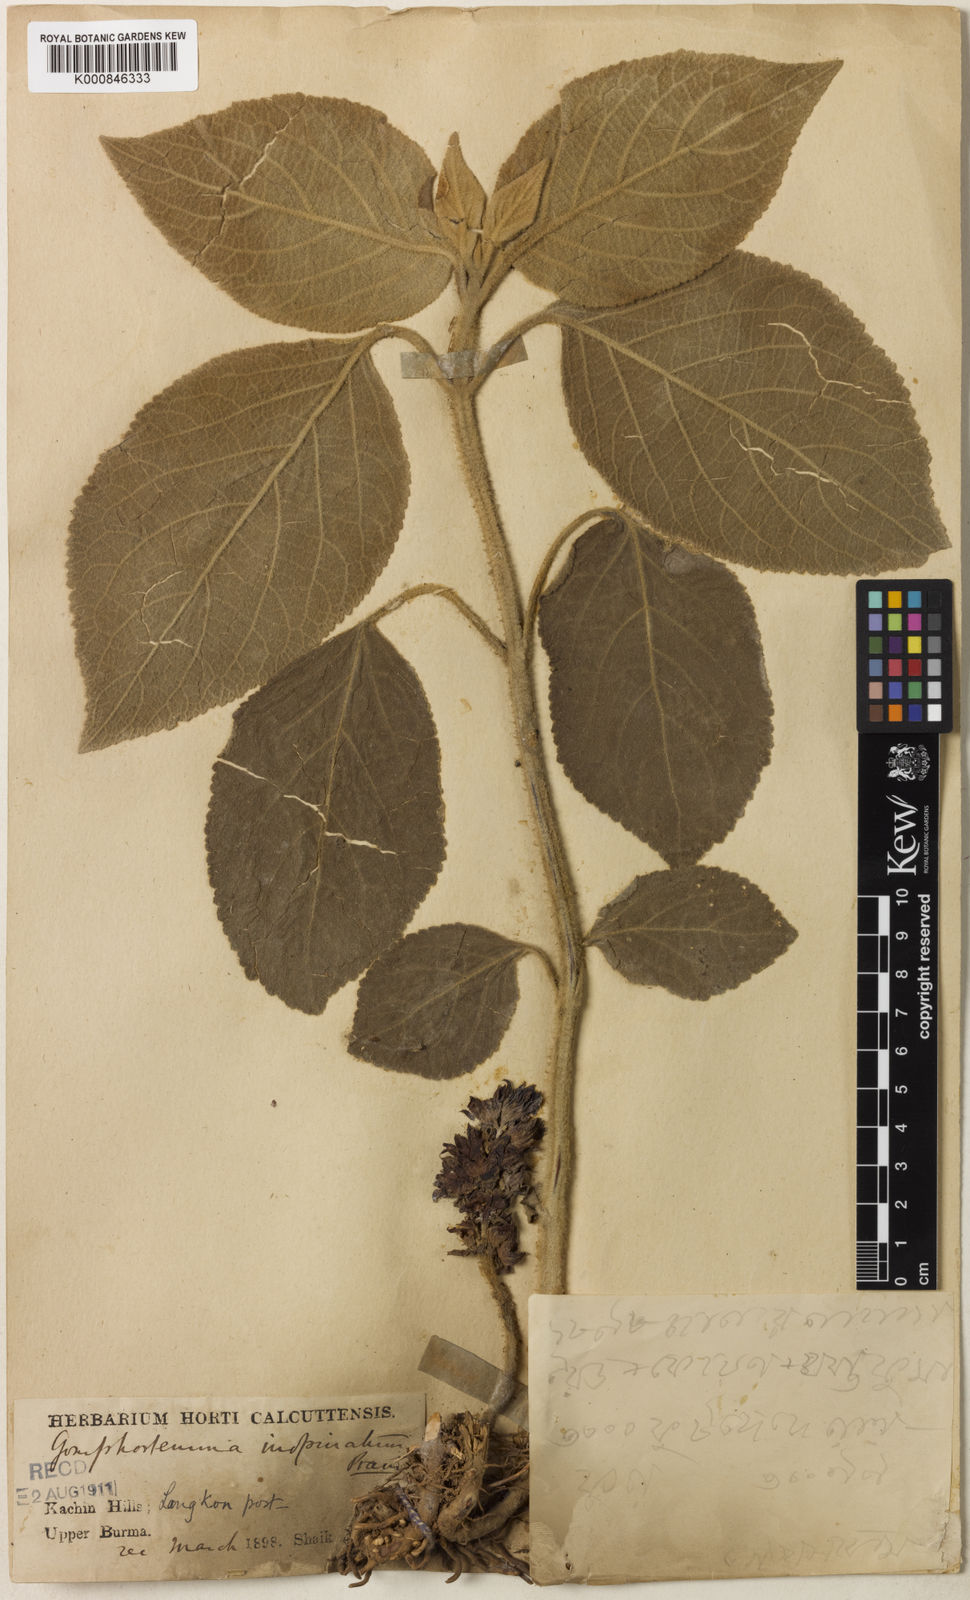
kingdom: Plantae
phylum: Tracheophyta
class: Magnoliopsida
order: Lamiales
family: Lamiaceae
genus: Gomphostemma
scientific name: Gomphostemma pedunculatum
